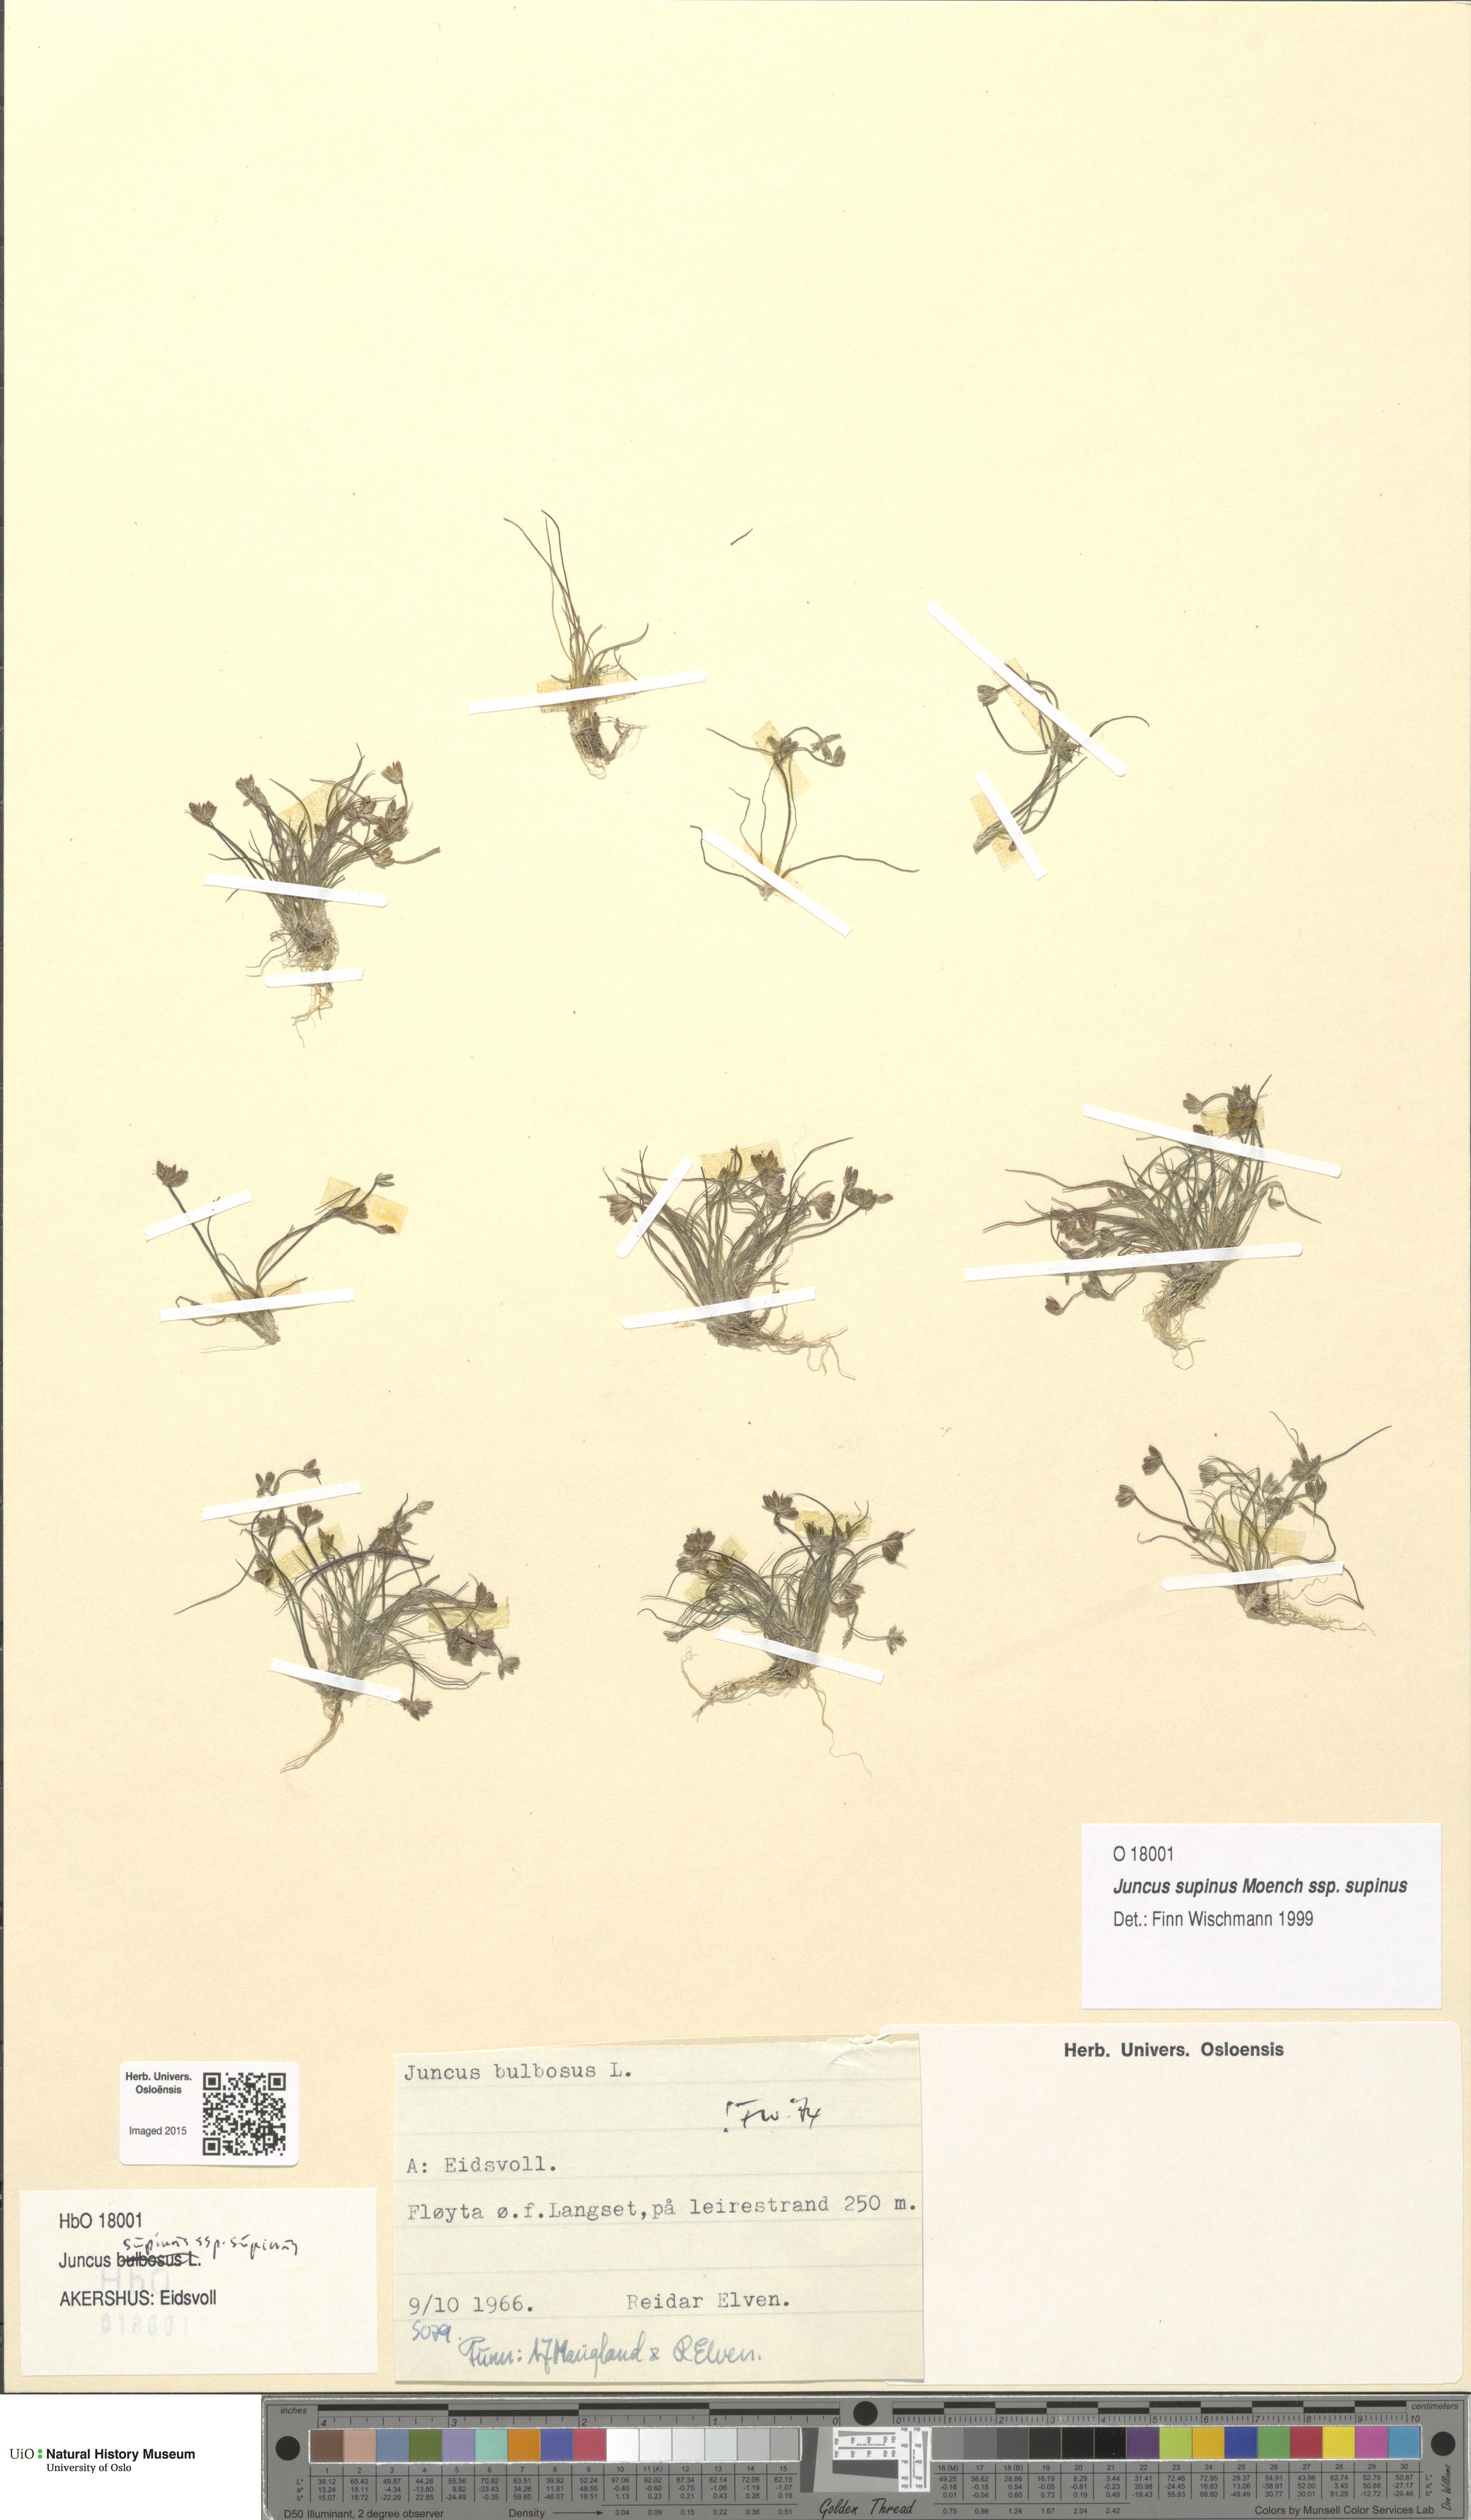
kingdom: Plantae
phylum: Tracheophyta
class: Liliopsida
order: Poales
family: Juncaceae
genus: Juncus
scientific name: Juncus bulbosus
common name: Bulbous rush
